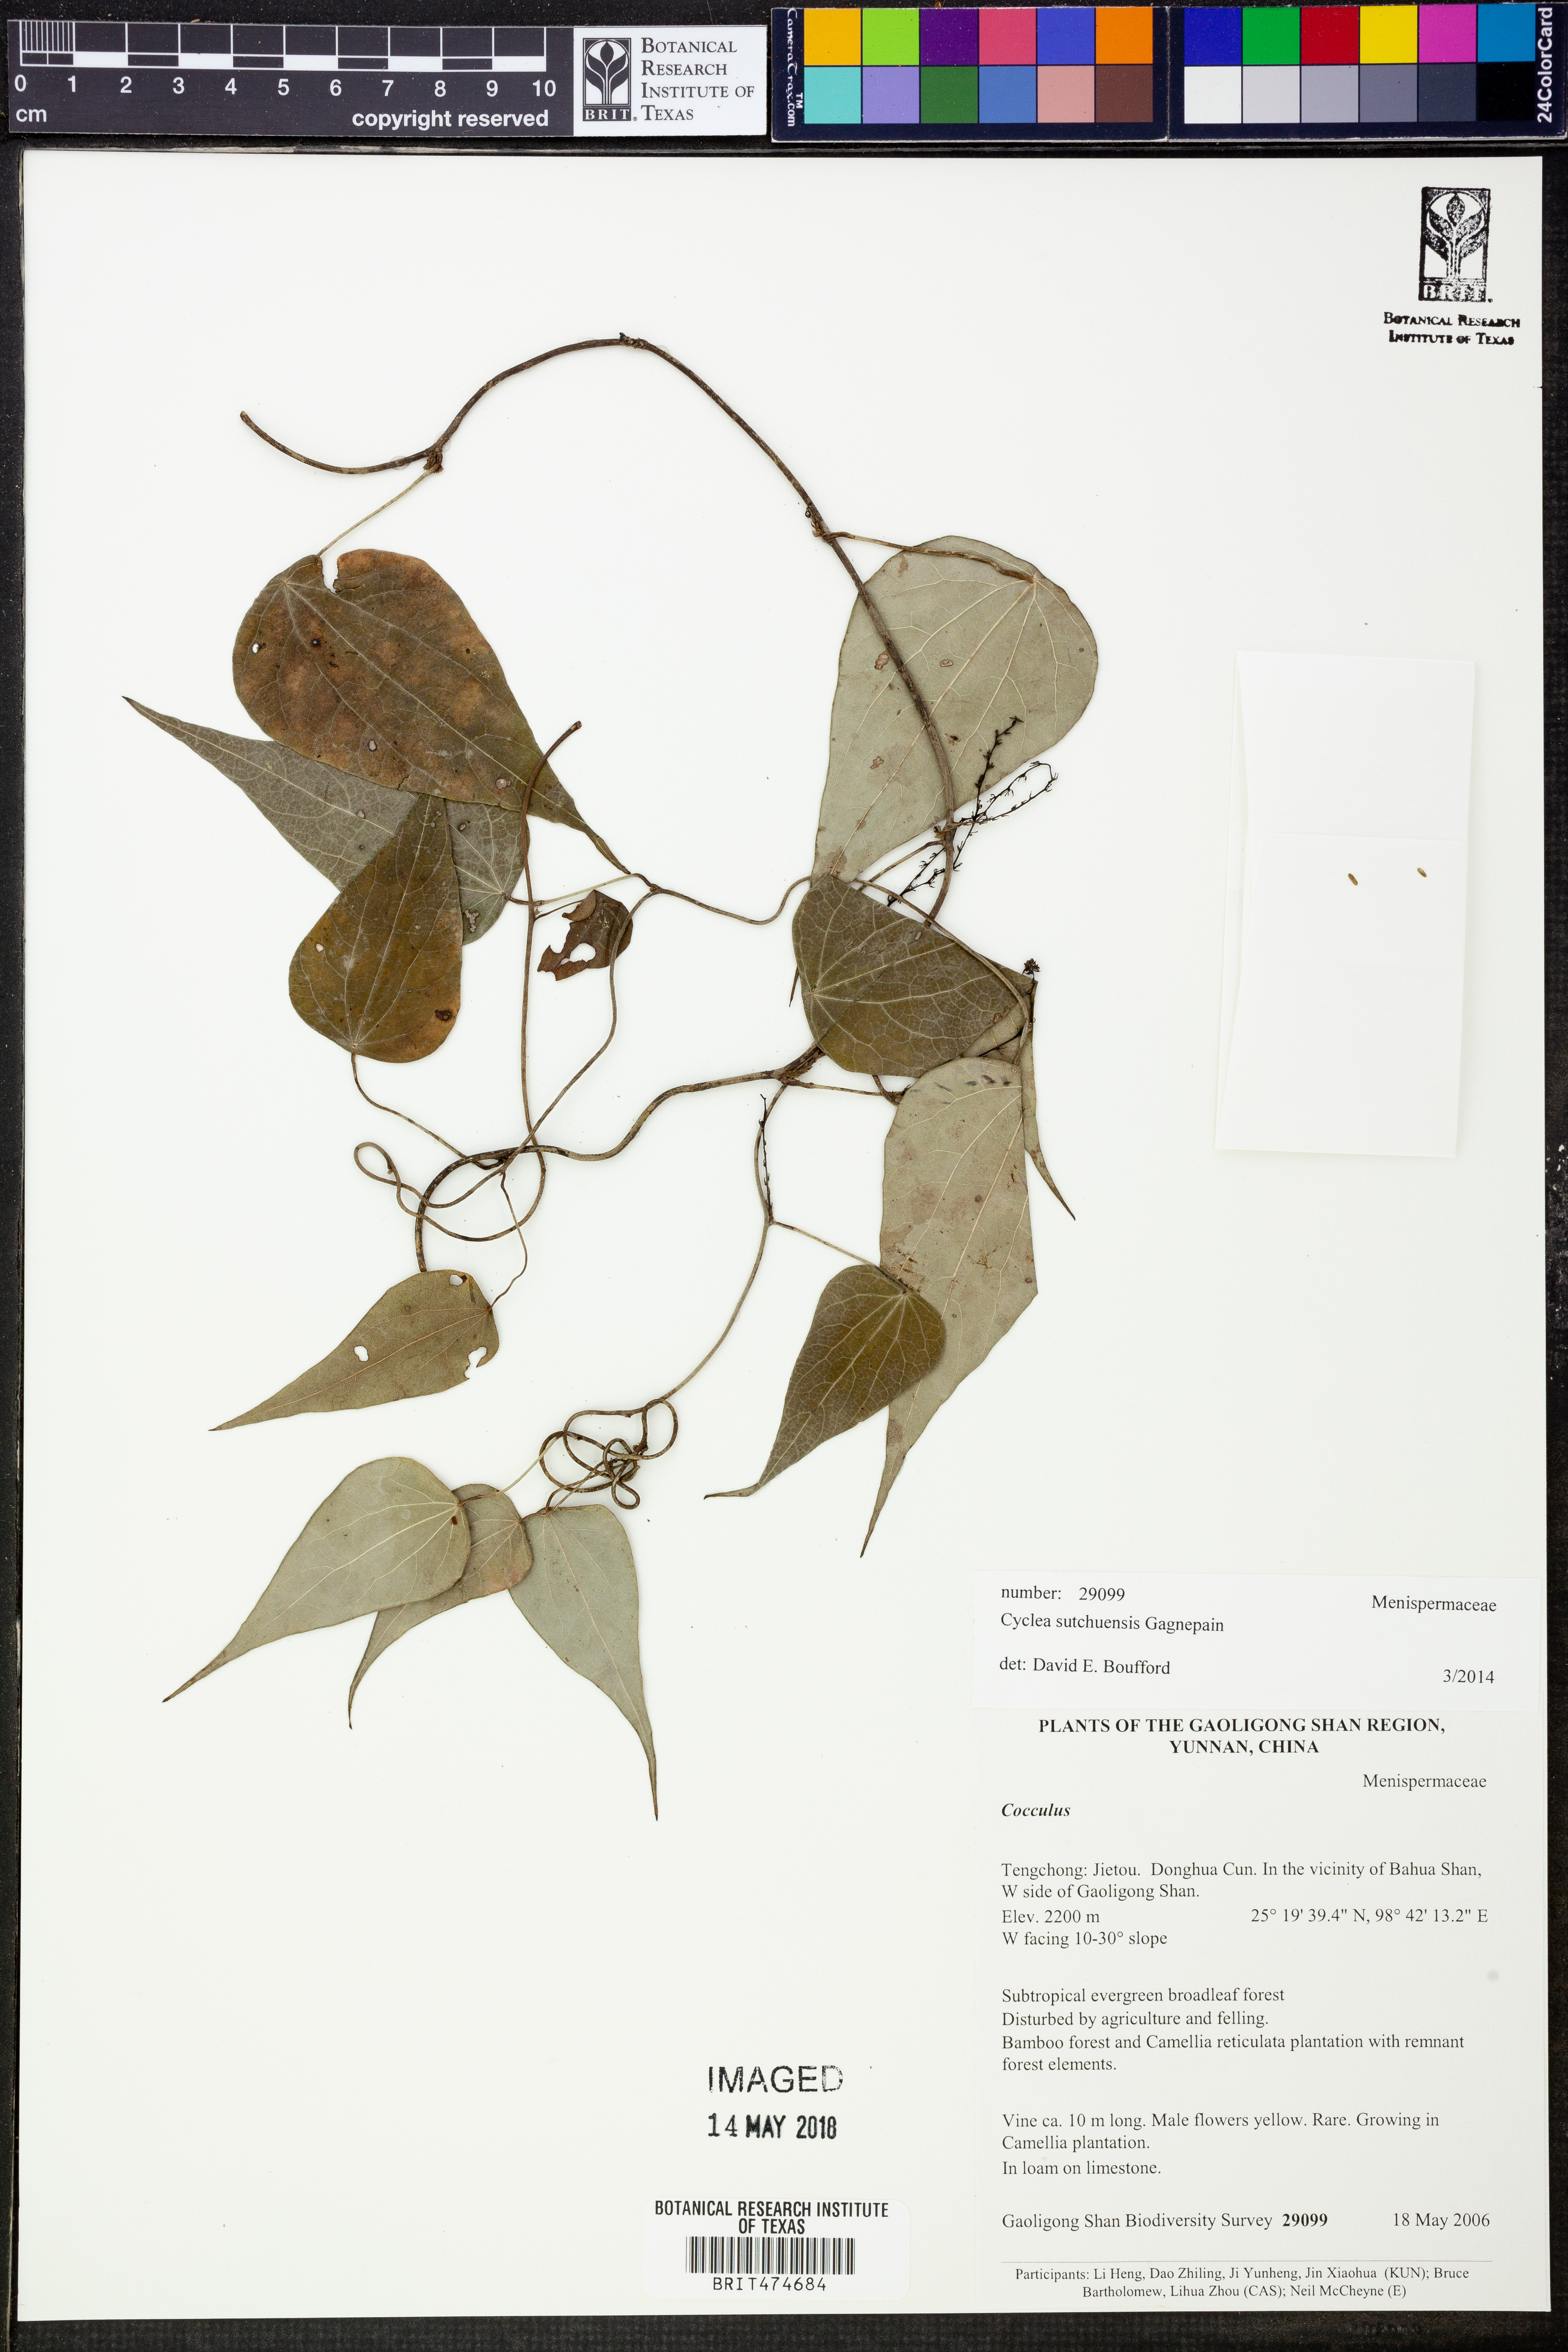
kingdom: Plantae
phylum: Tracheophyta
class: Magnoliopsida
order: Ranunculales
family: Menispermaceae
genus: Cyclea
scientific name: Cyclea sutchuenensis
